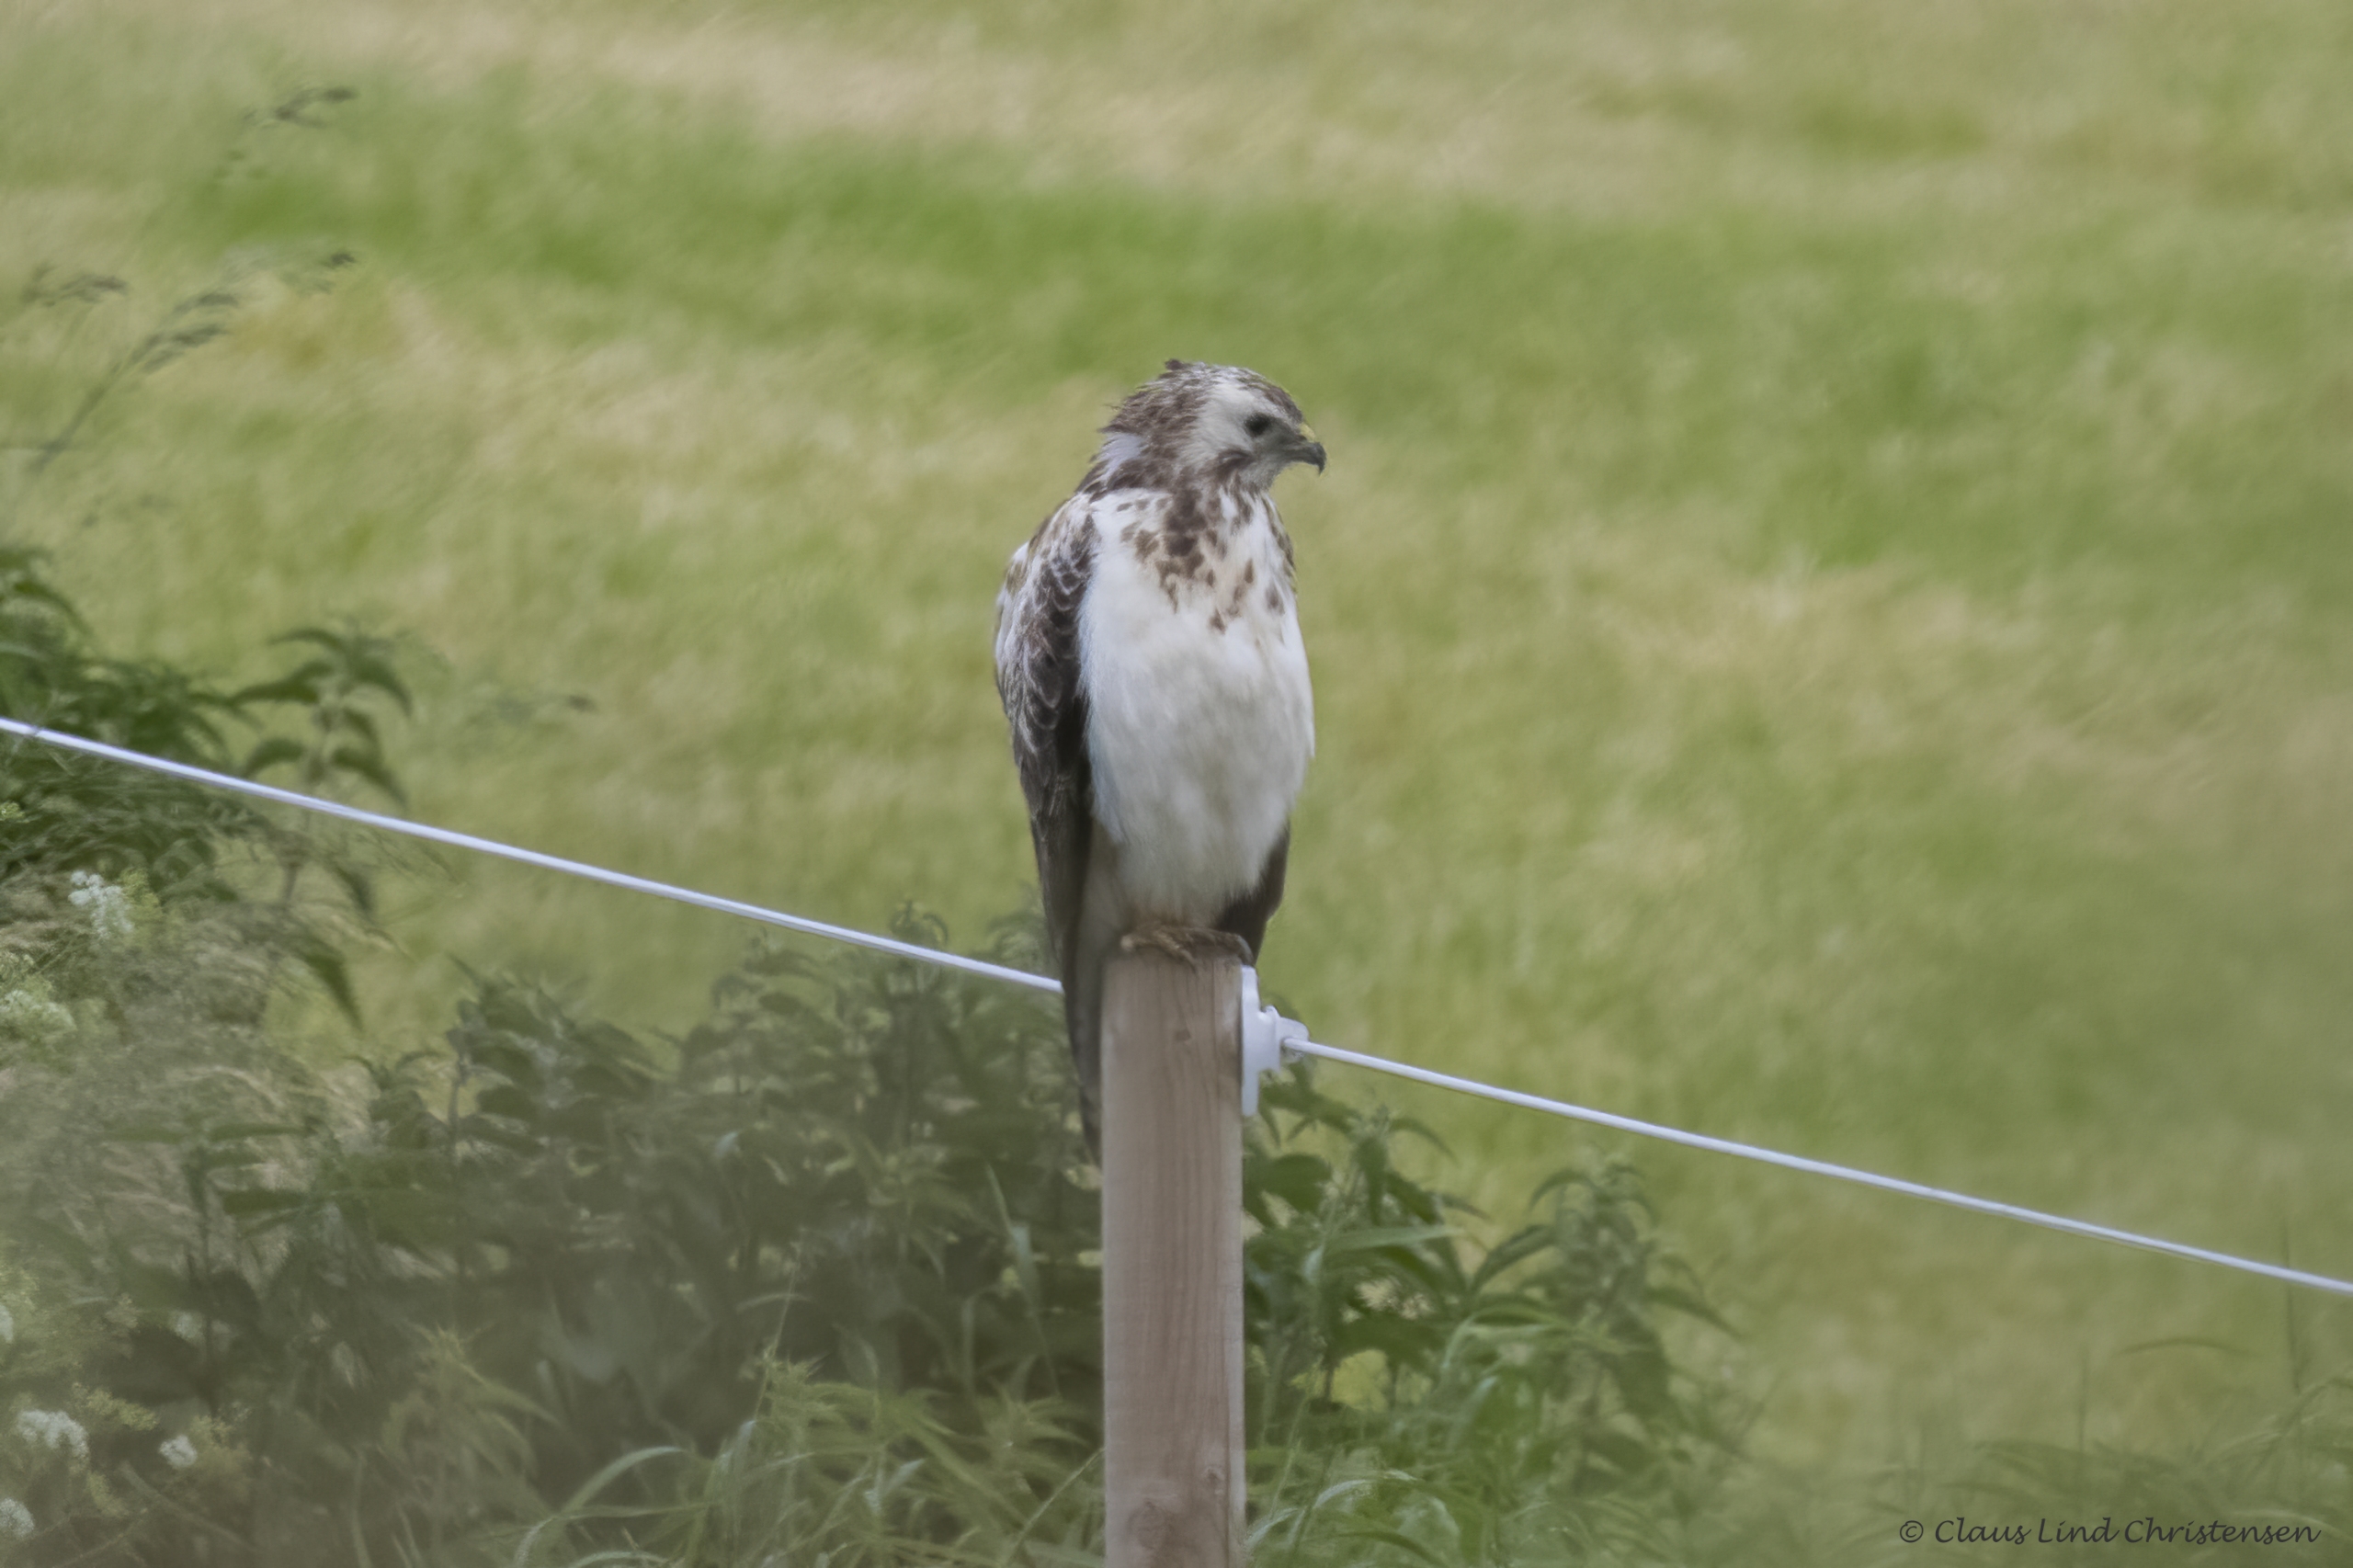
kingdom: Animalia
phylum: Chordata
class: Aves
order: Accipitriformes
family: Accipitridae
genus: Buteo
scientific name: Buteo buteo
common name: Musvåge
